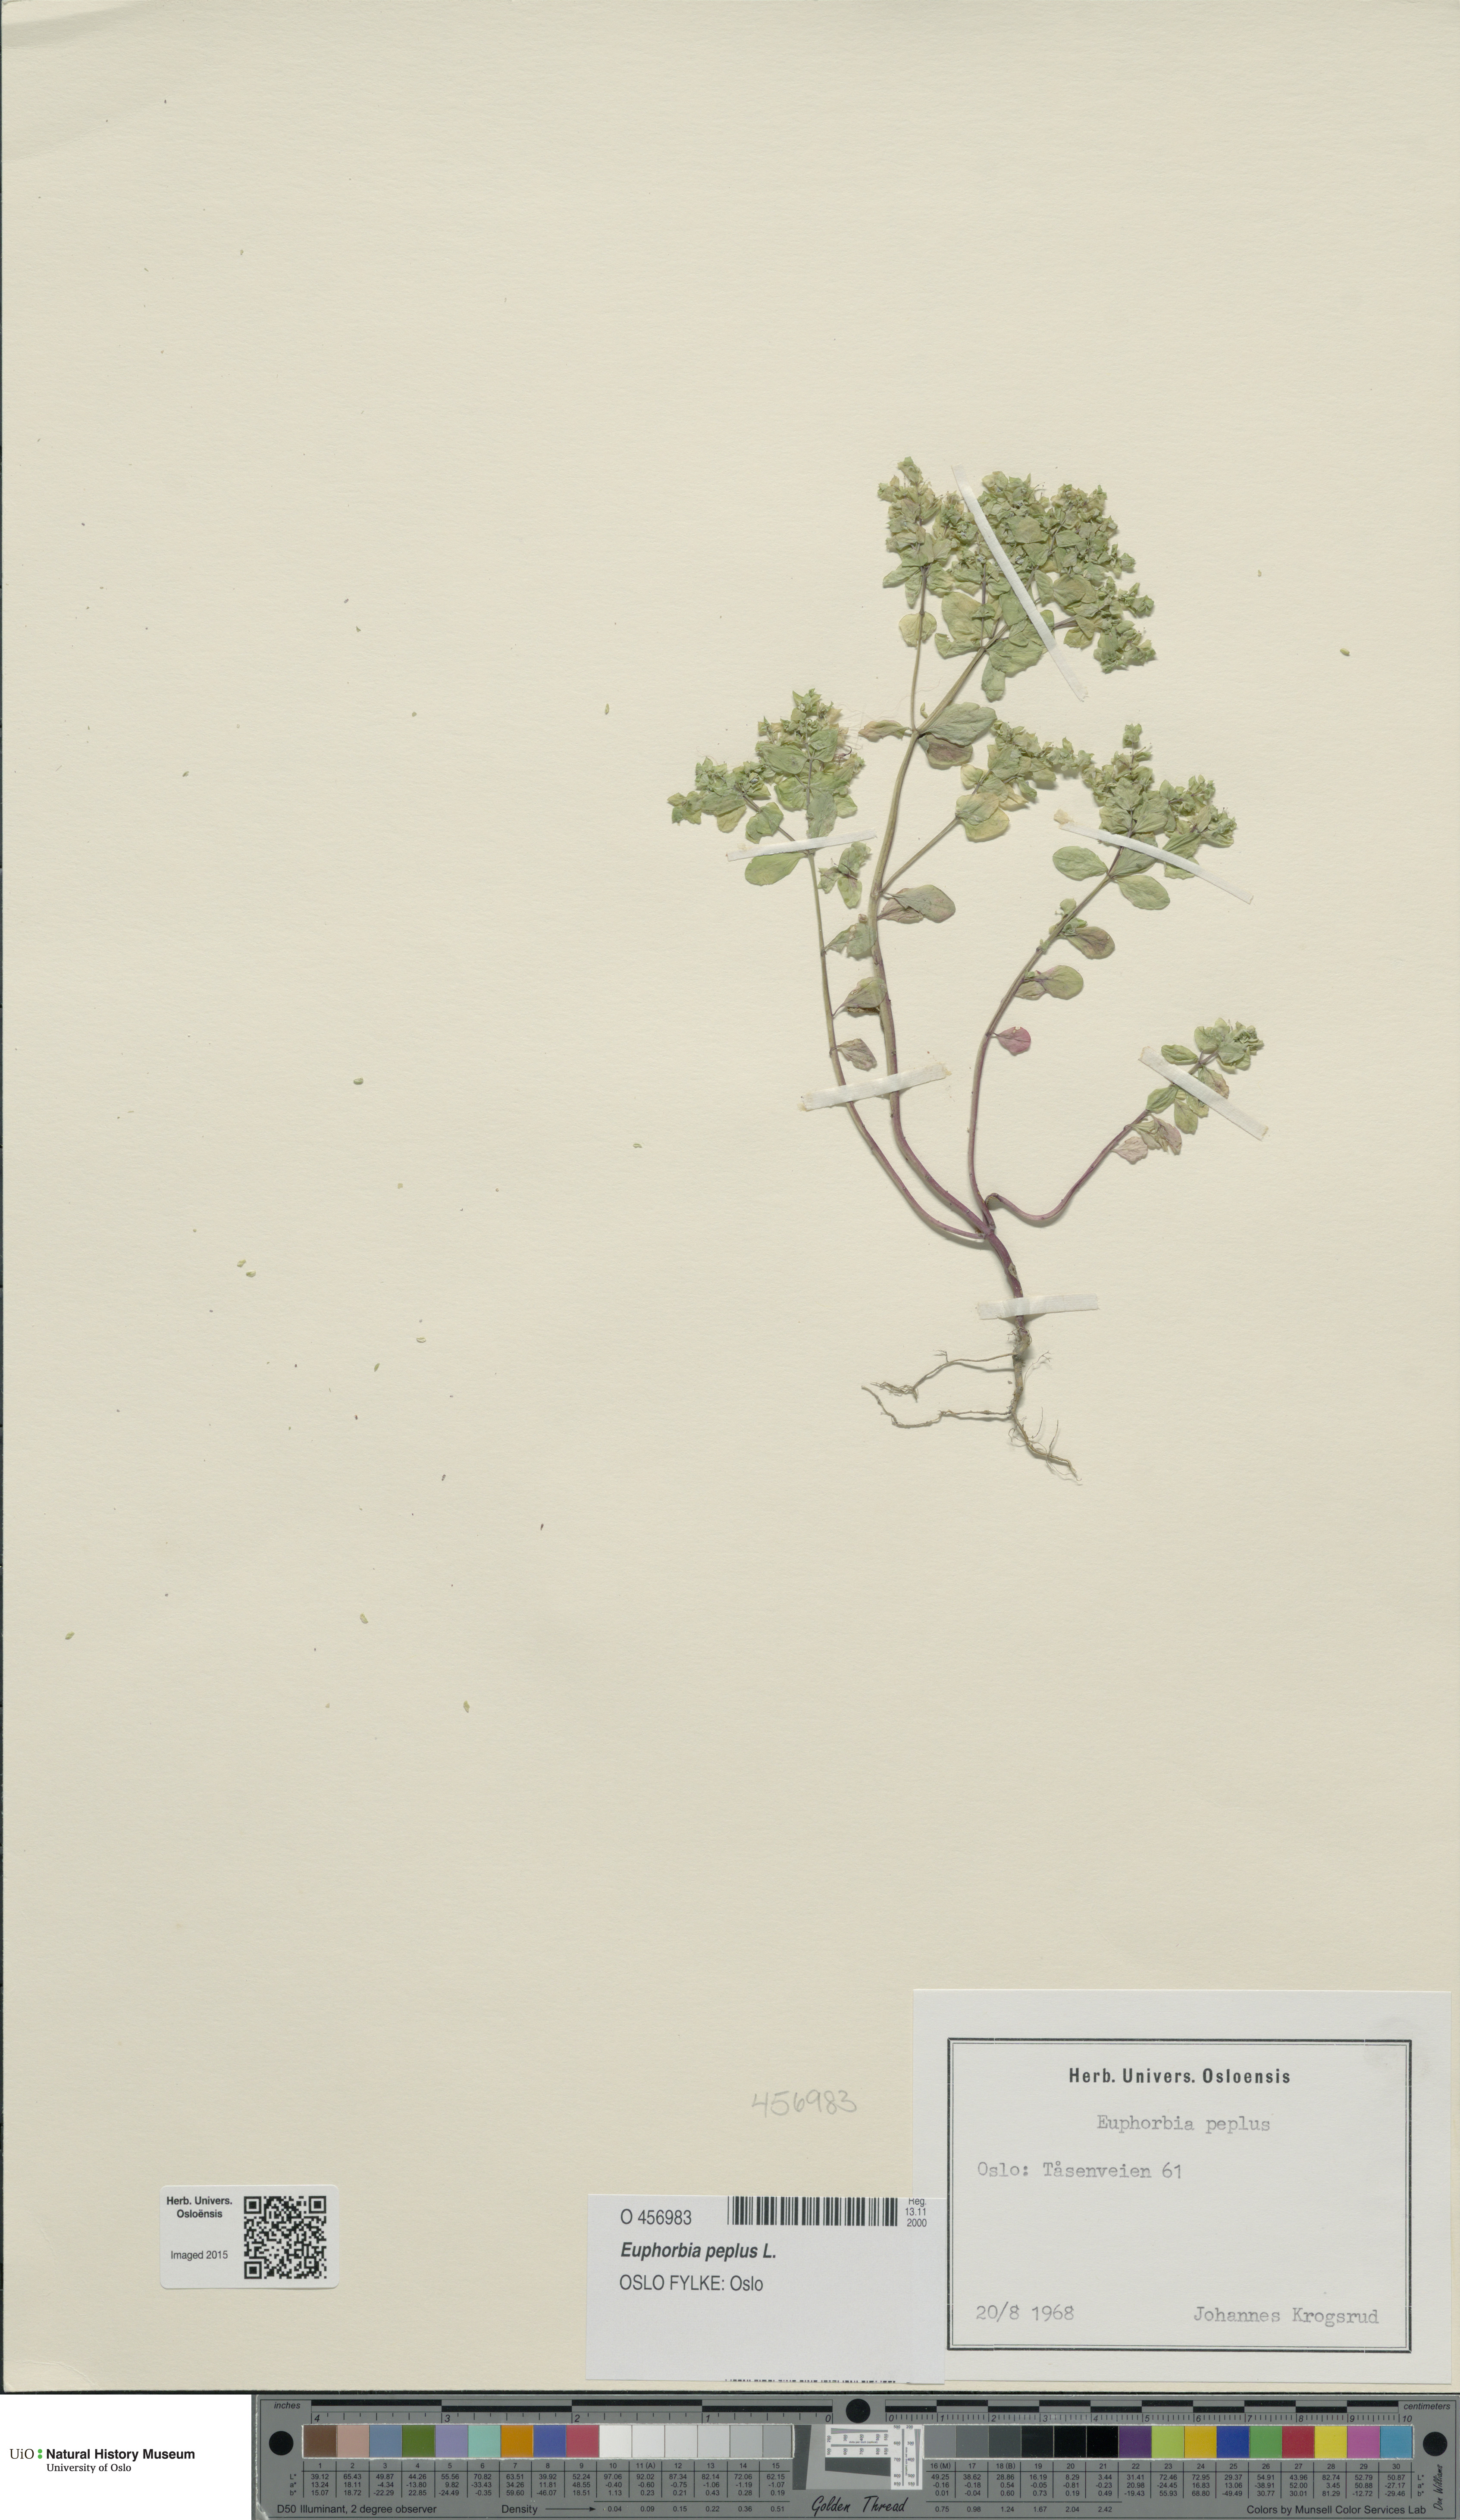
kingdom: Plantae
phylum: Tracheophyta
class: Magnoliopsida
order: Malpighiales
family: Euphorbiaceae
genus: Euphorbia
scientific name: Euphorbia peplus
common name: Petty spurge
